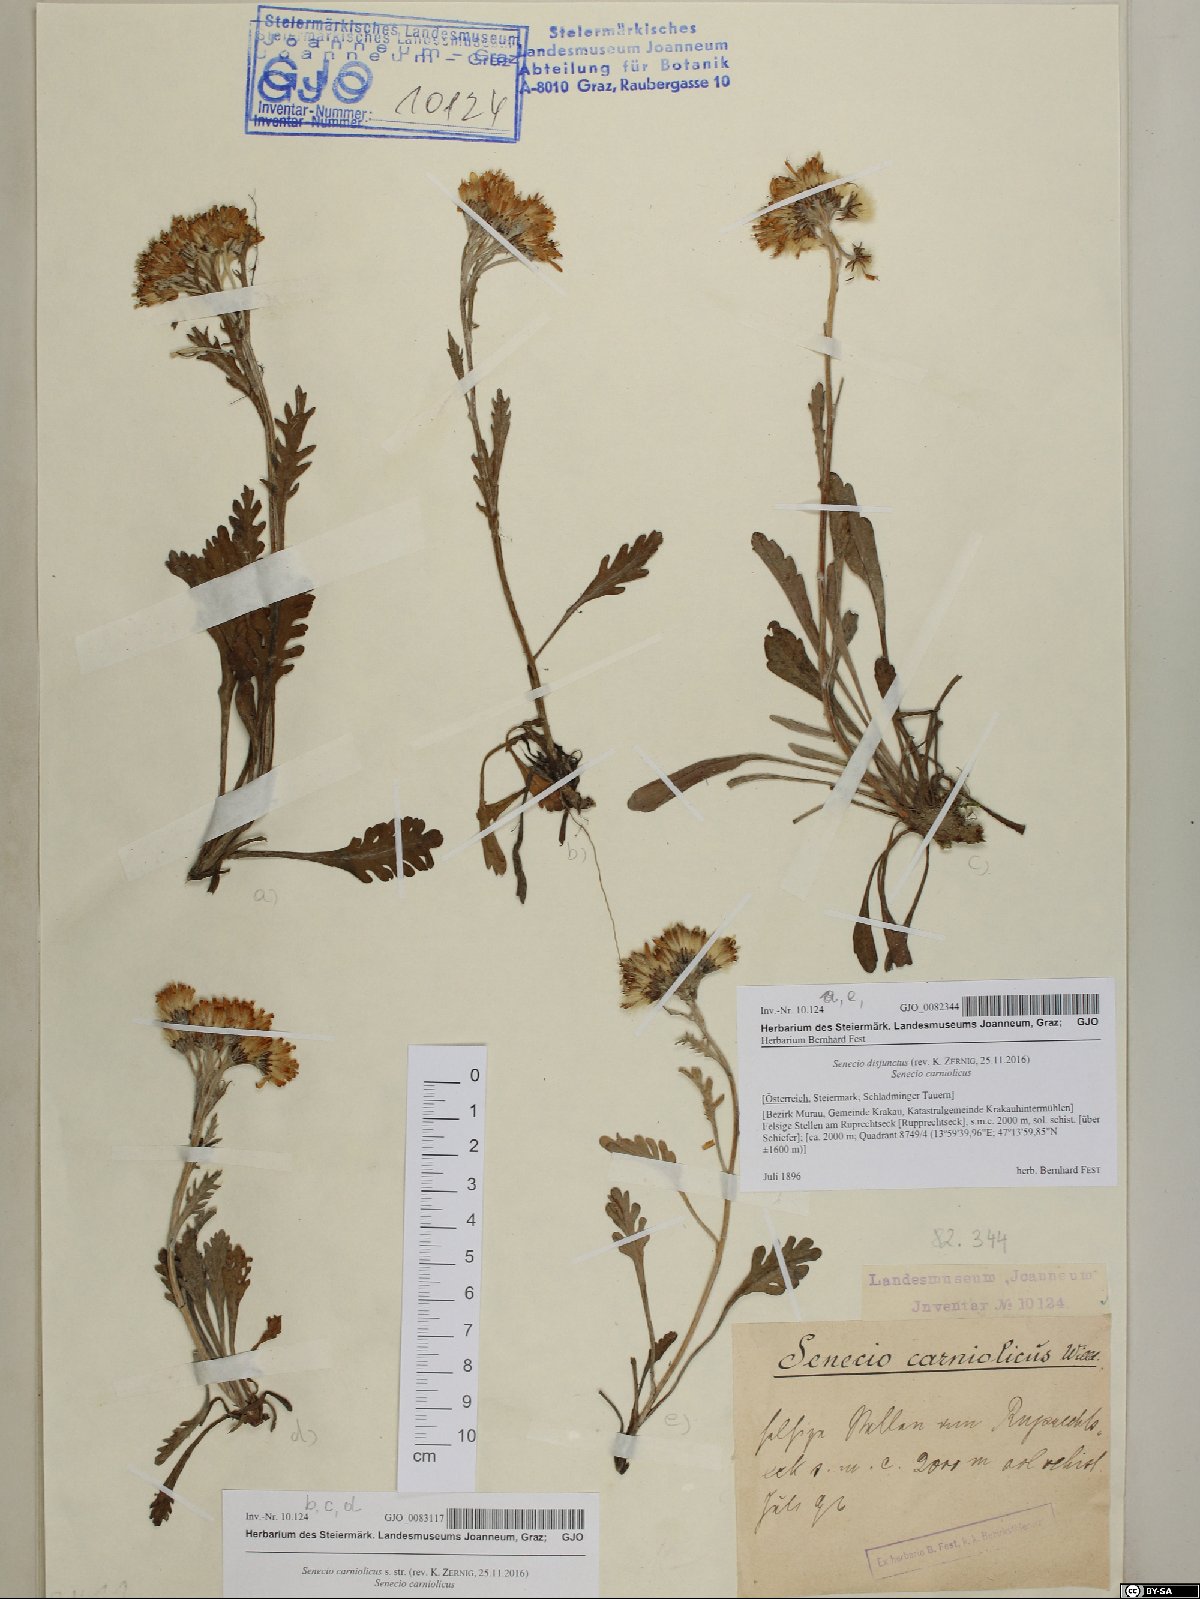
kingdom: Plantae
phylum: Tracheophyta
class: Magnoliopsida
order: Asterales
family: Asteraceae
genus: Jacobaea
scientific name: Jacobaea disjuncta
